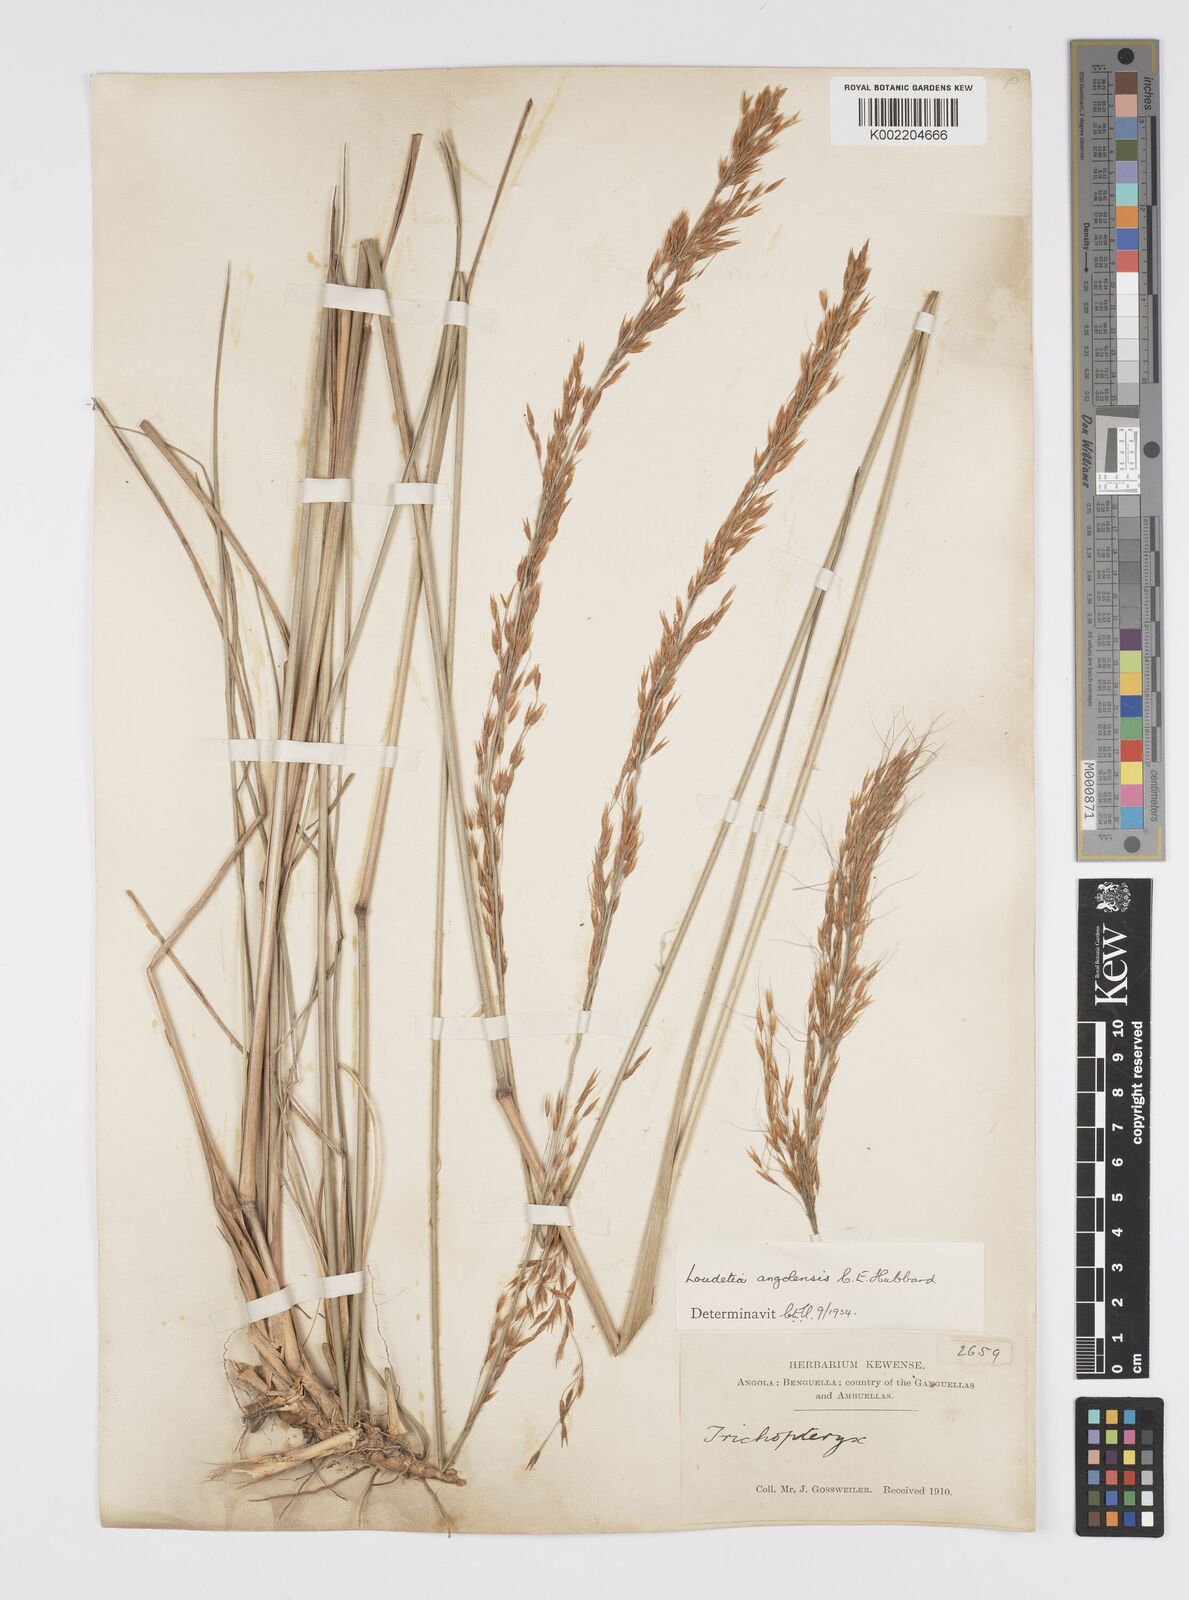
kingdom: Plantae
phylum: Tracheophyta
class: Liliopsida
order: Poales
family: Poaceae
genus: Loudetia
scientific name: Loudetia angolensis
